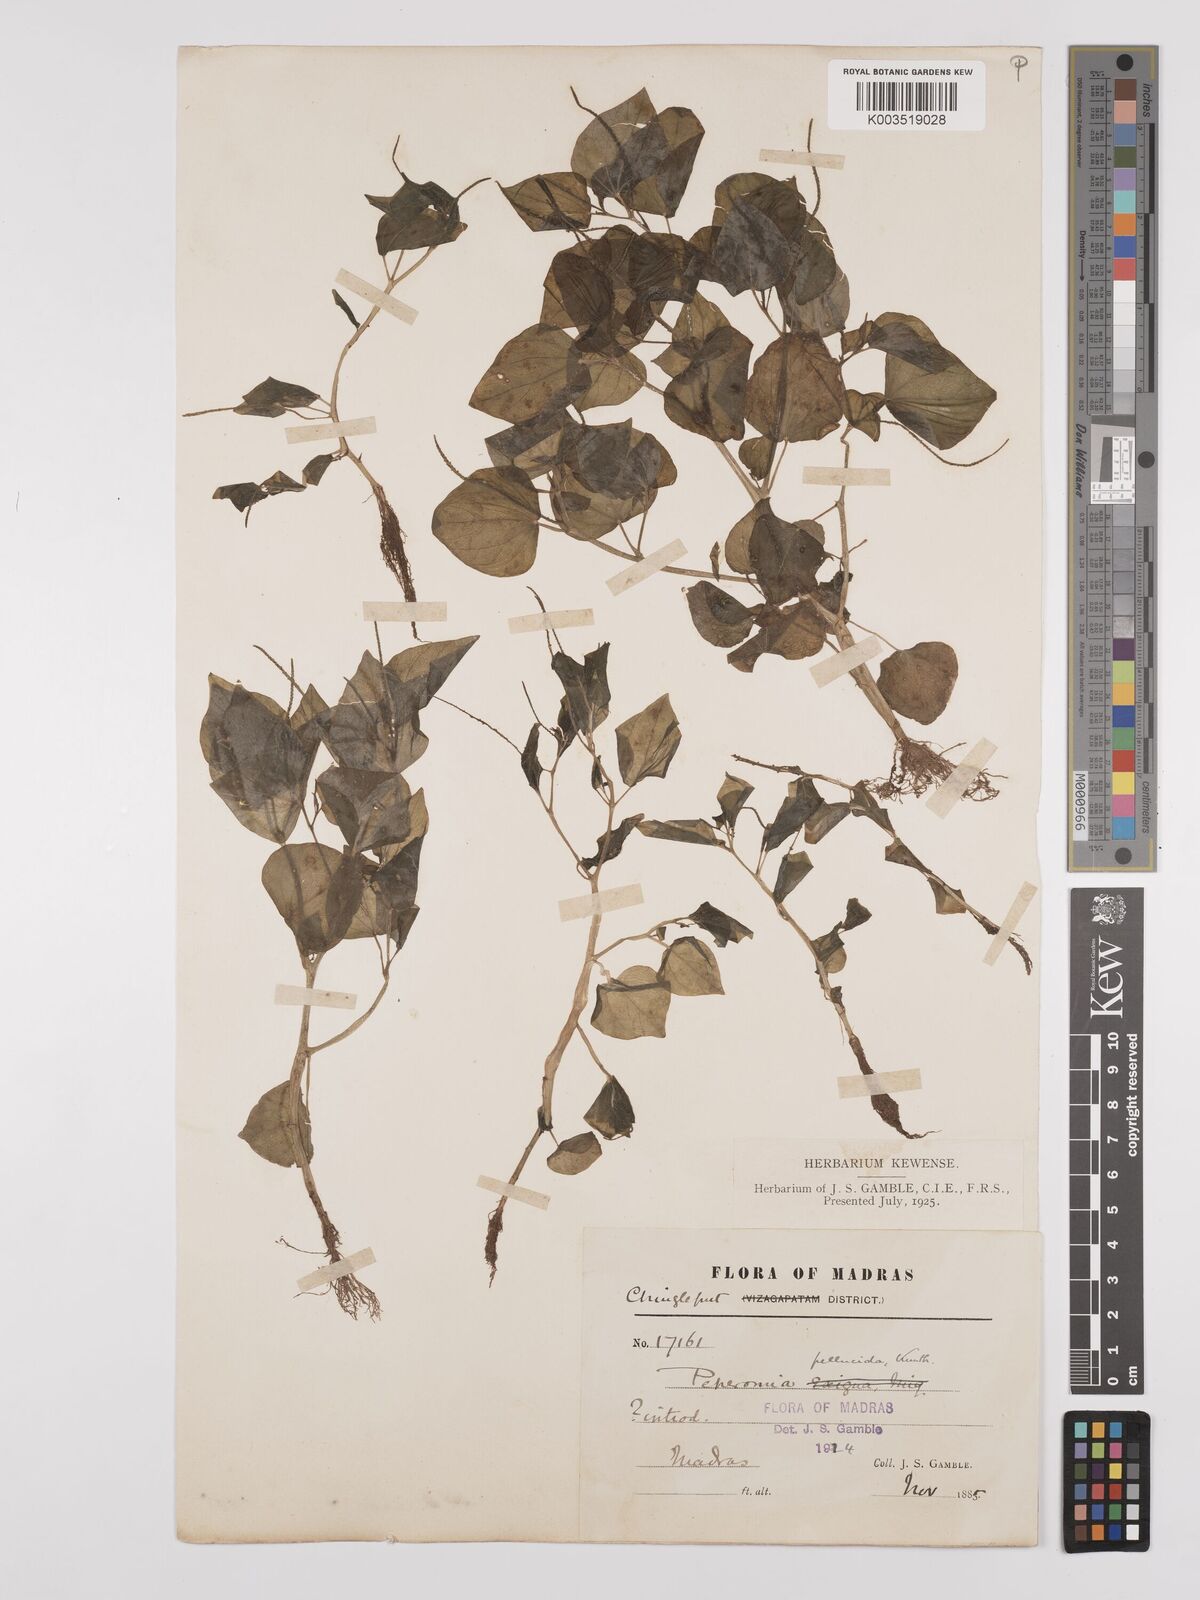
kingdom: Plantae
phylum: Tracheophyta
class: Magnoliopsida
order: Piperales
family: Piperaceae
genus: Peperomia
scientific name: Peperomia pellucida
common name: Man to man
